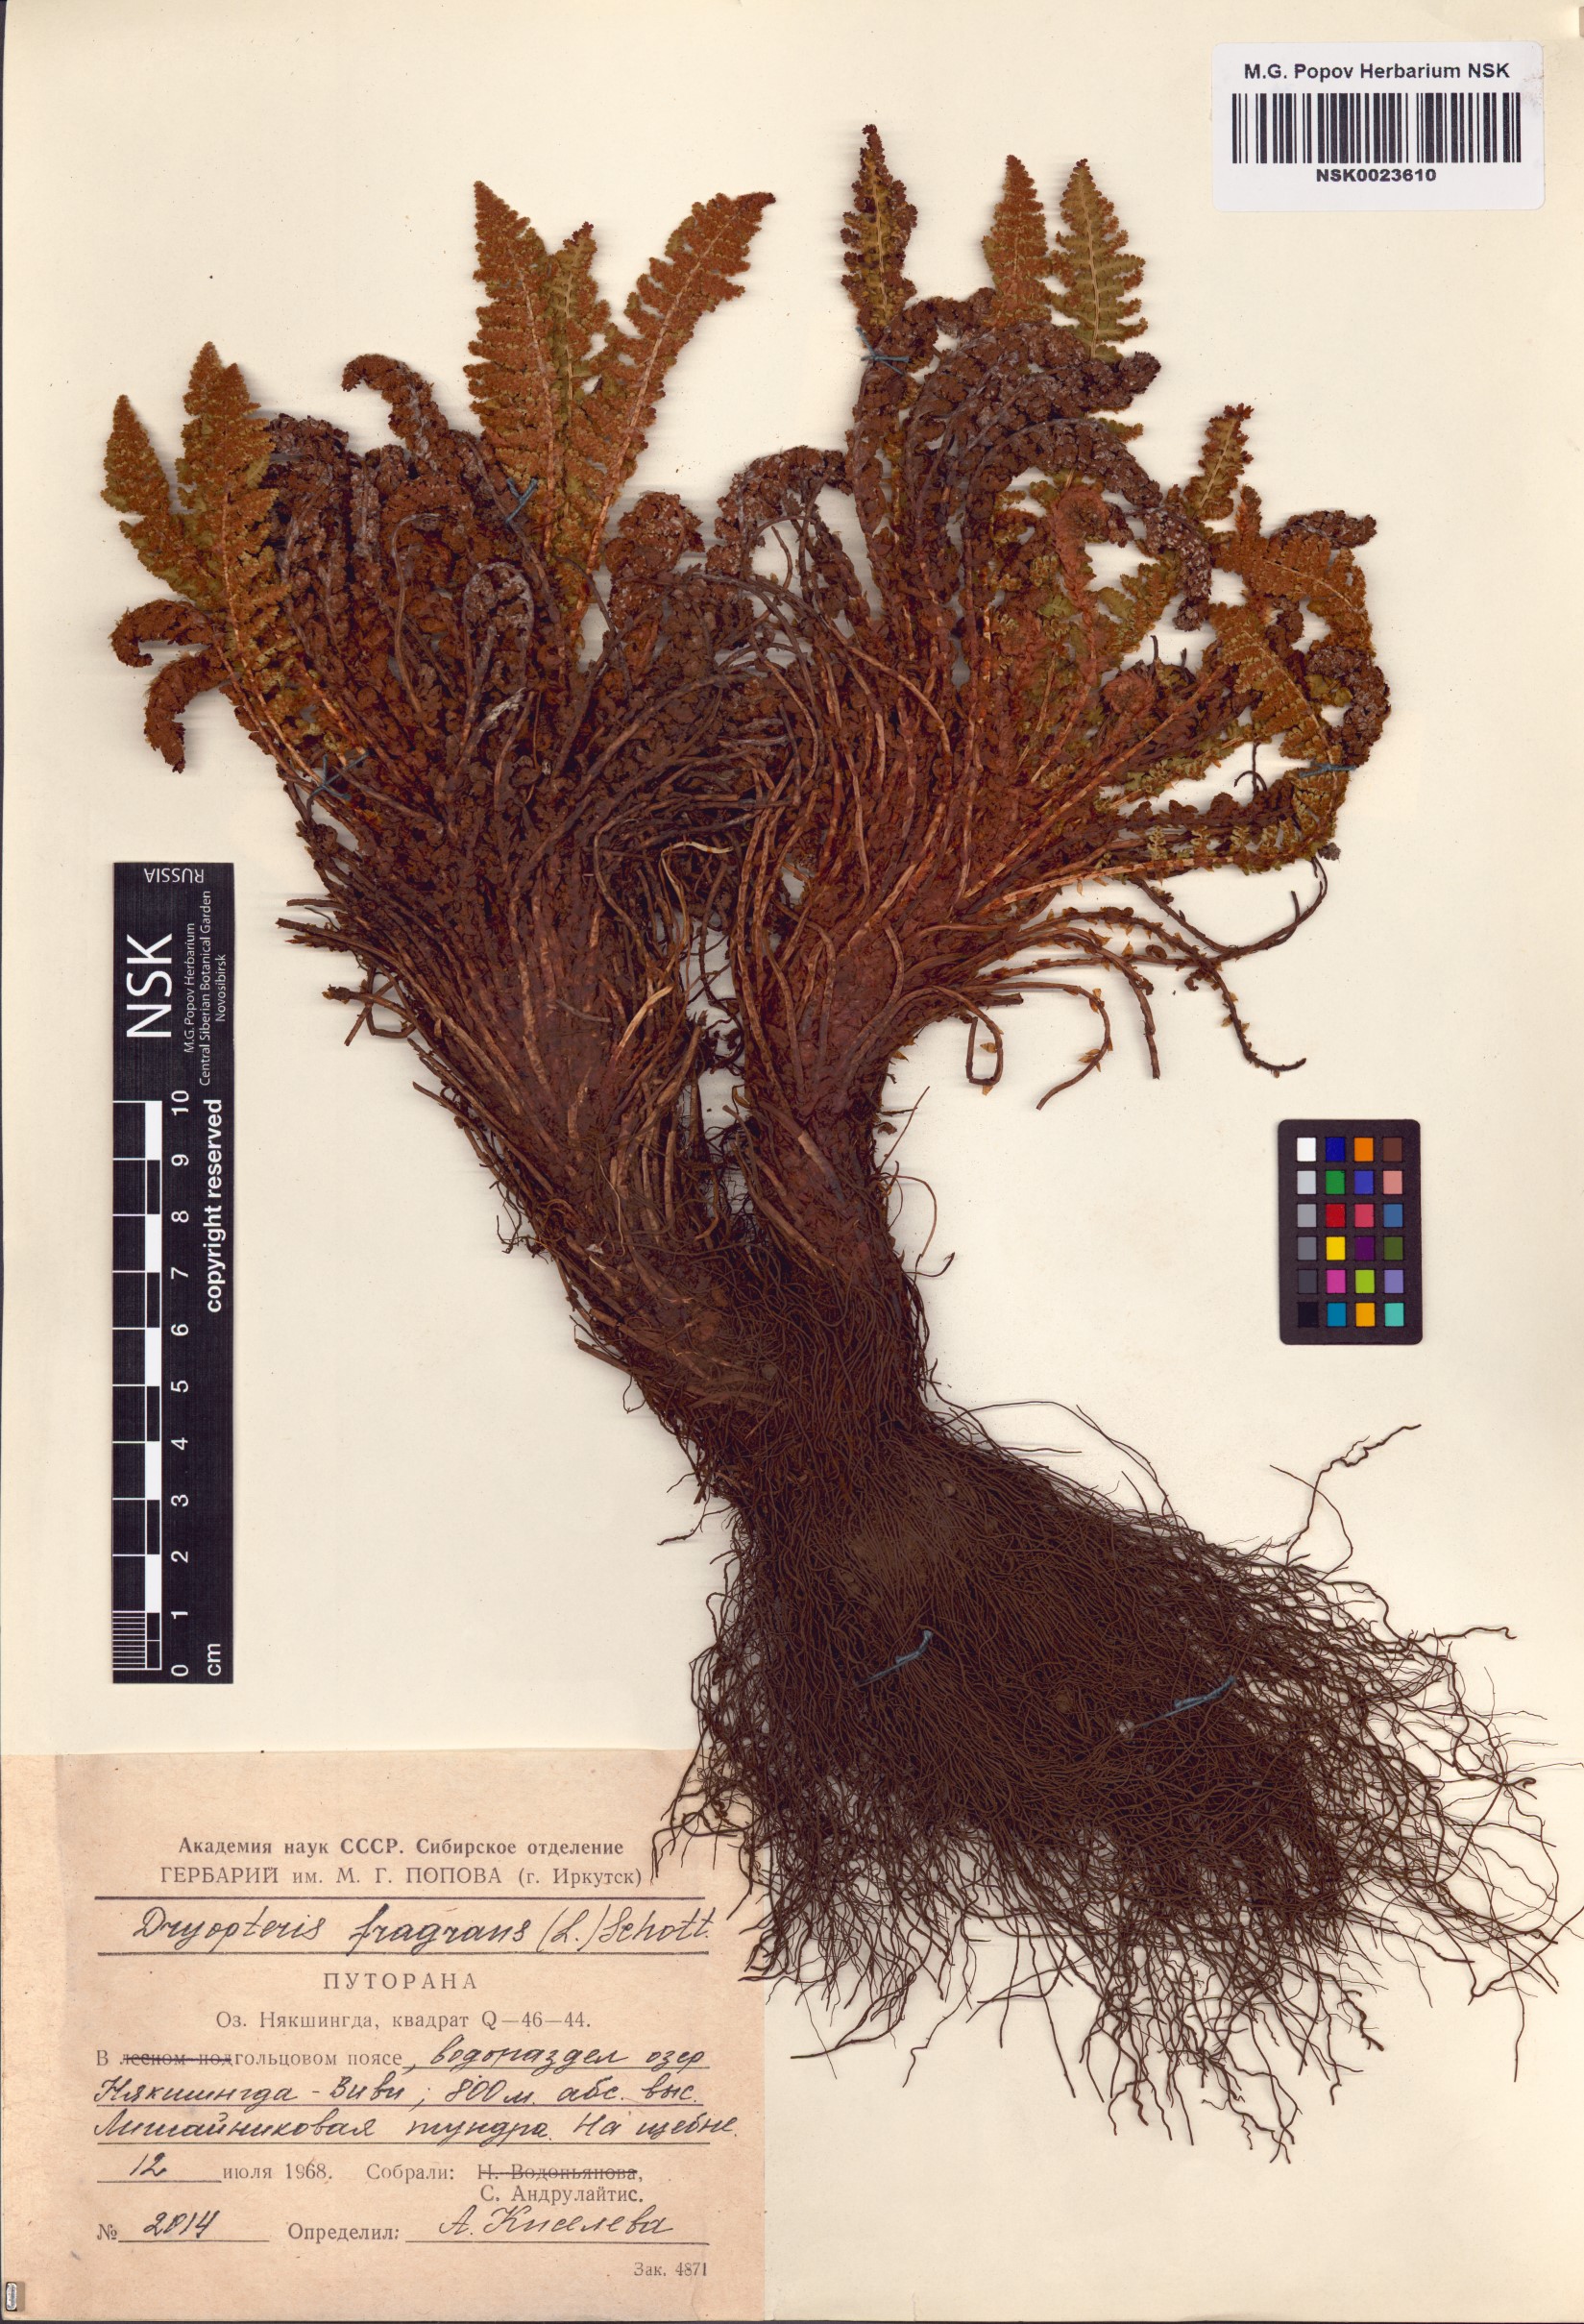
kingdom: Plantae
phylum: Tracheophyta
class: Polypodiopsida
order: Polypodiales
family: Dryopteridaceae
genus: Dryopteris
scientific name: Dryopteris fragrans
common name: Fragrant wood fern
